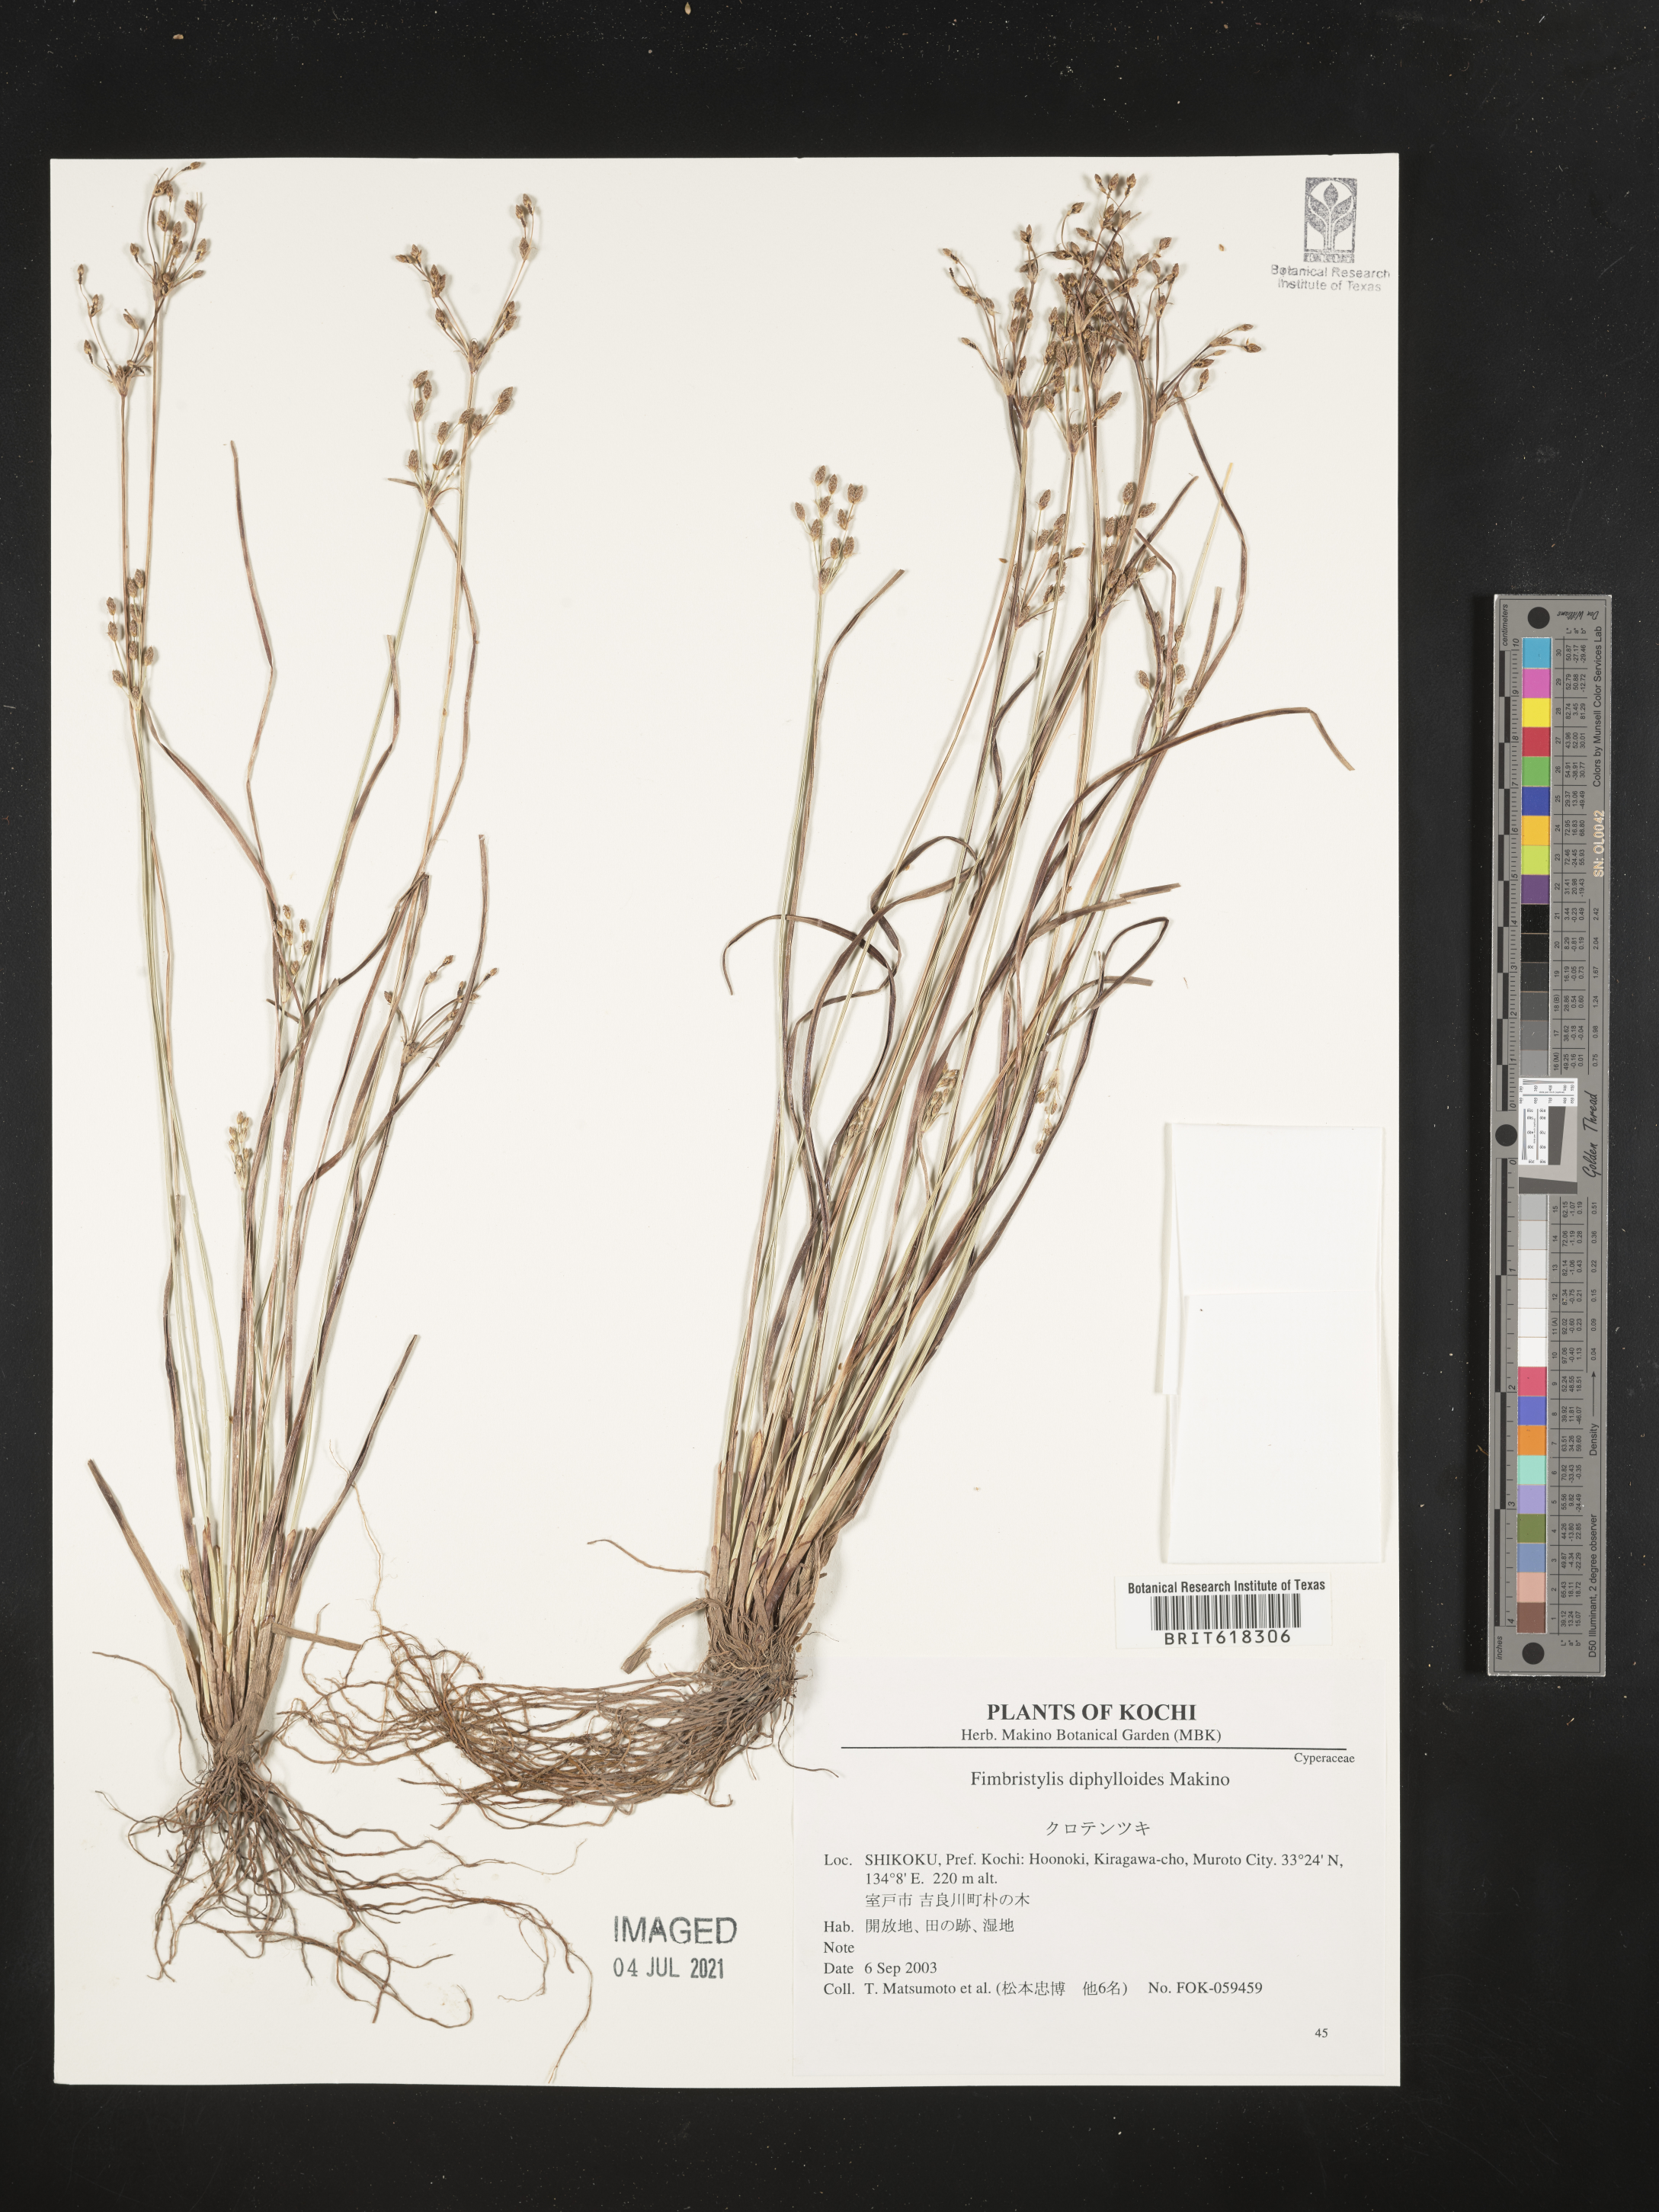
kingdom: Plantae
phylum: Tracheophyta
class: Liliopsida
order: Poales
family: Cyperaceae
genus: Fimbristylis
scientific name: Fimbristylis diphylloides
